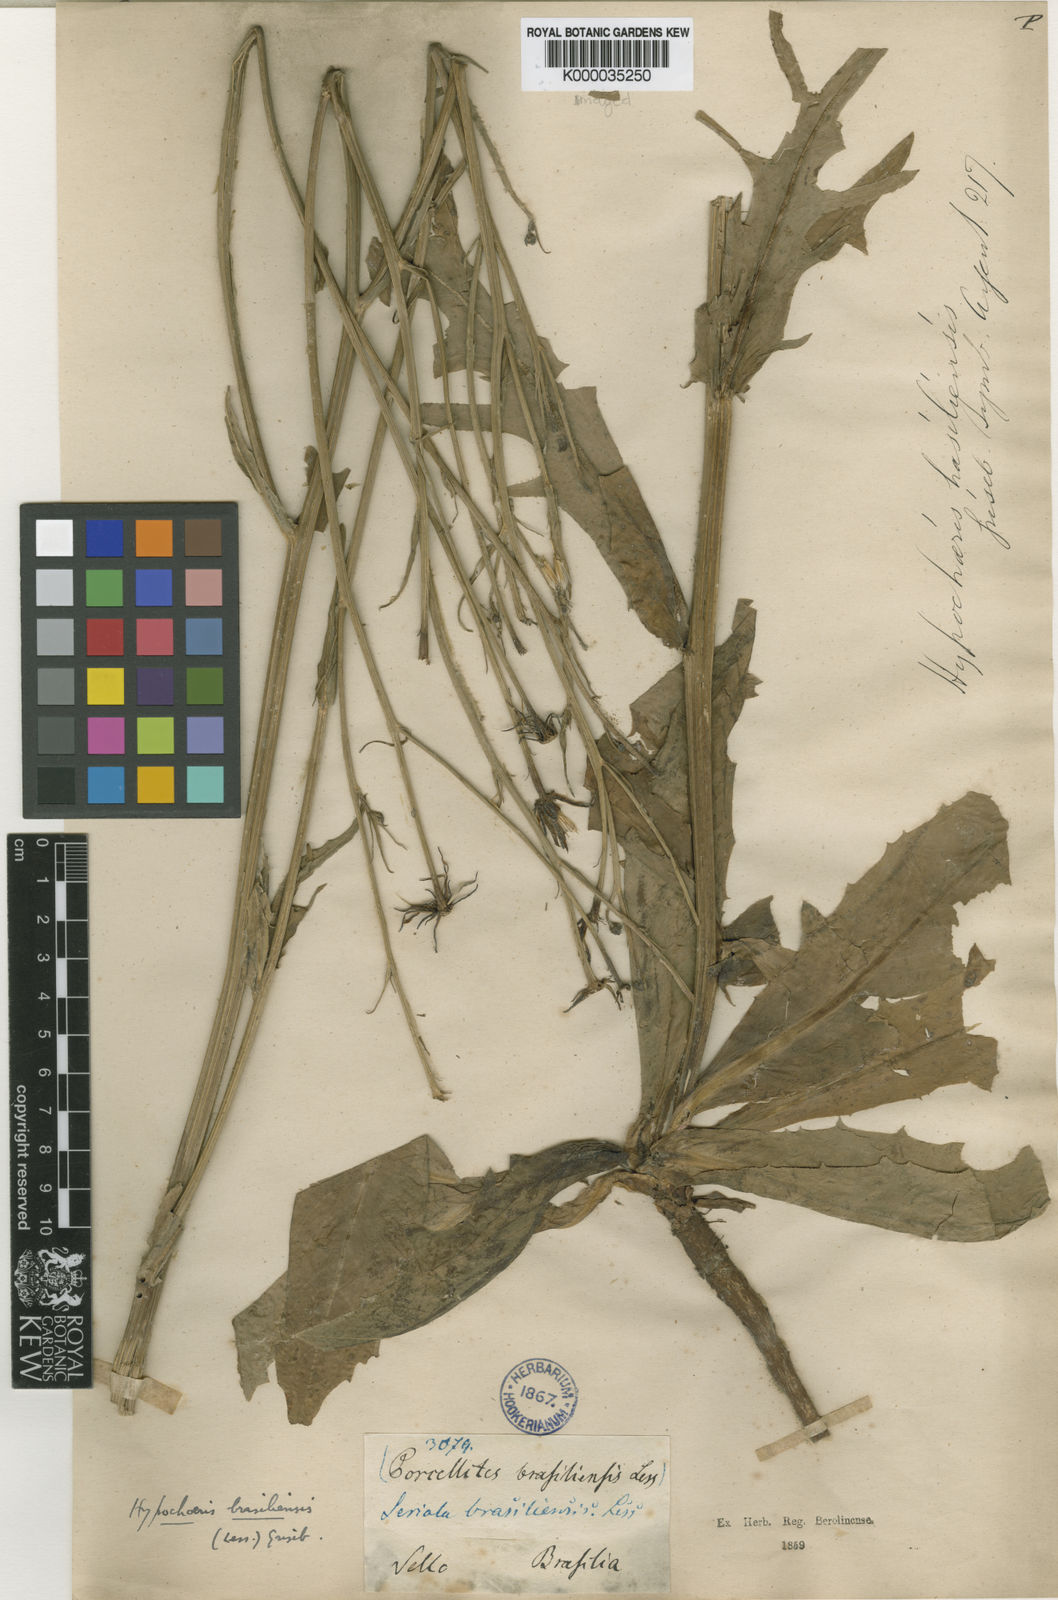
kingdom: Plantae
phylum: Tracheophyta
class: Magnoliopsida
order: Asterales
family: Asteraceae
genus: Hypochaeris
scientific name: Hypochaeris chillensis
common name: Brazilian cat's ear
